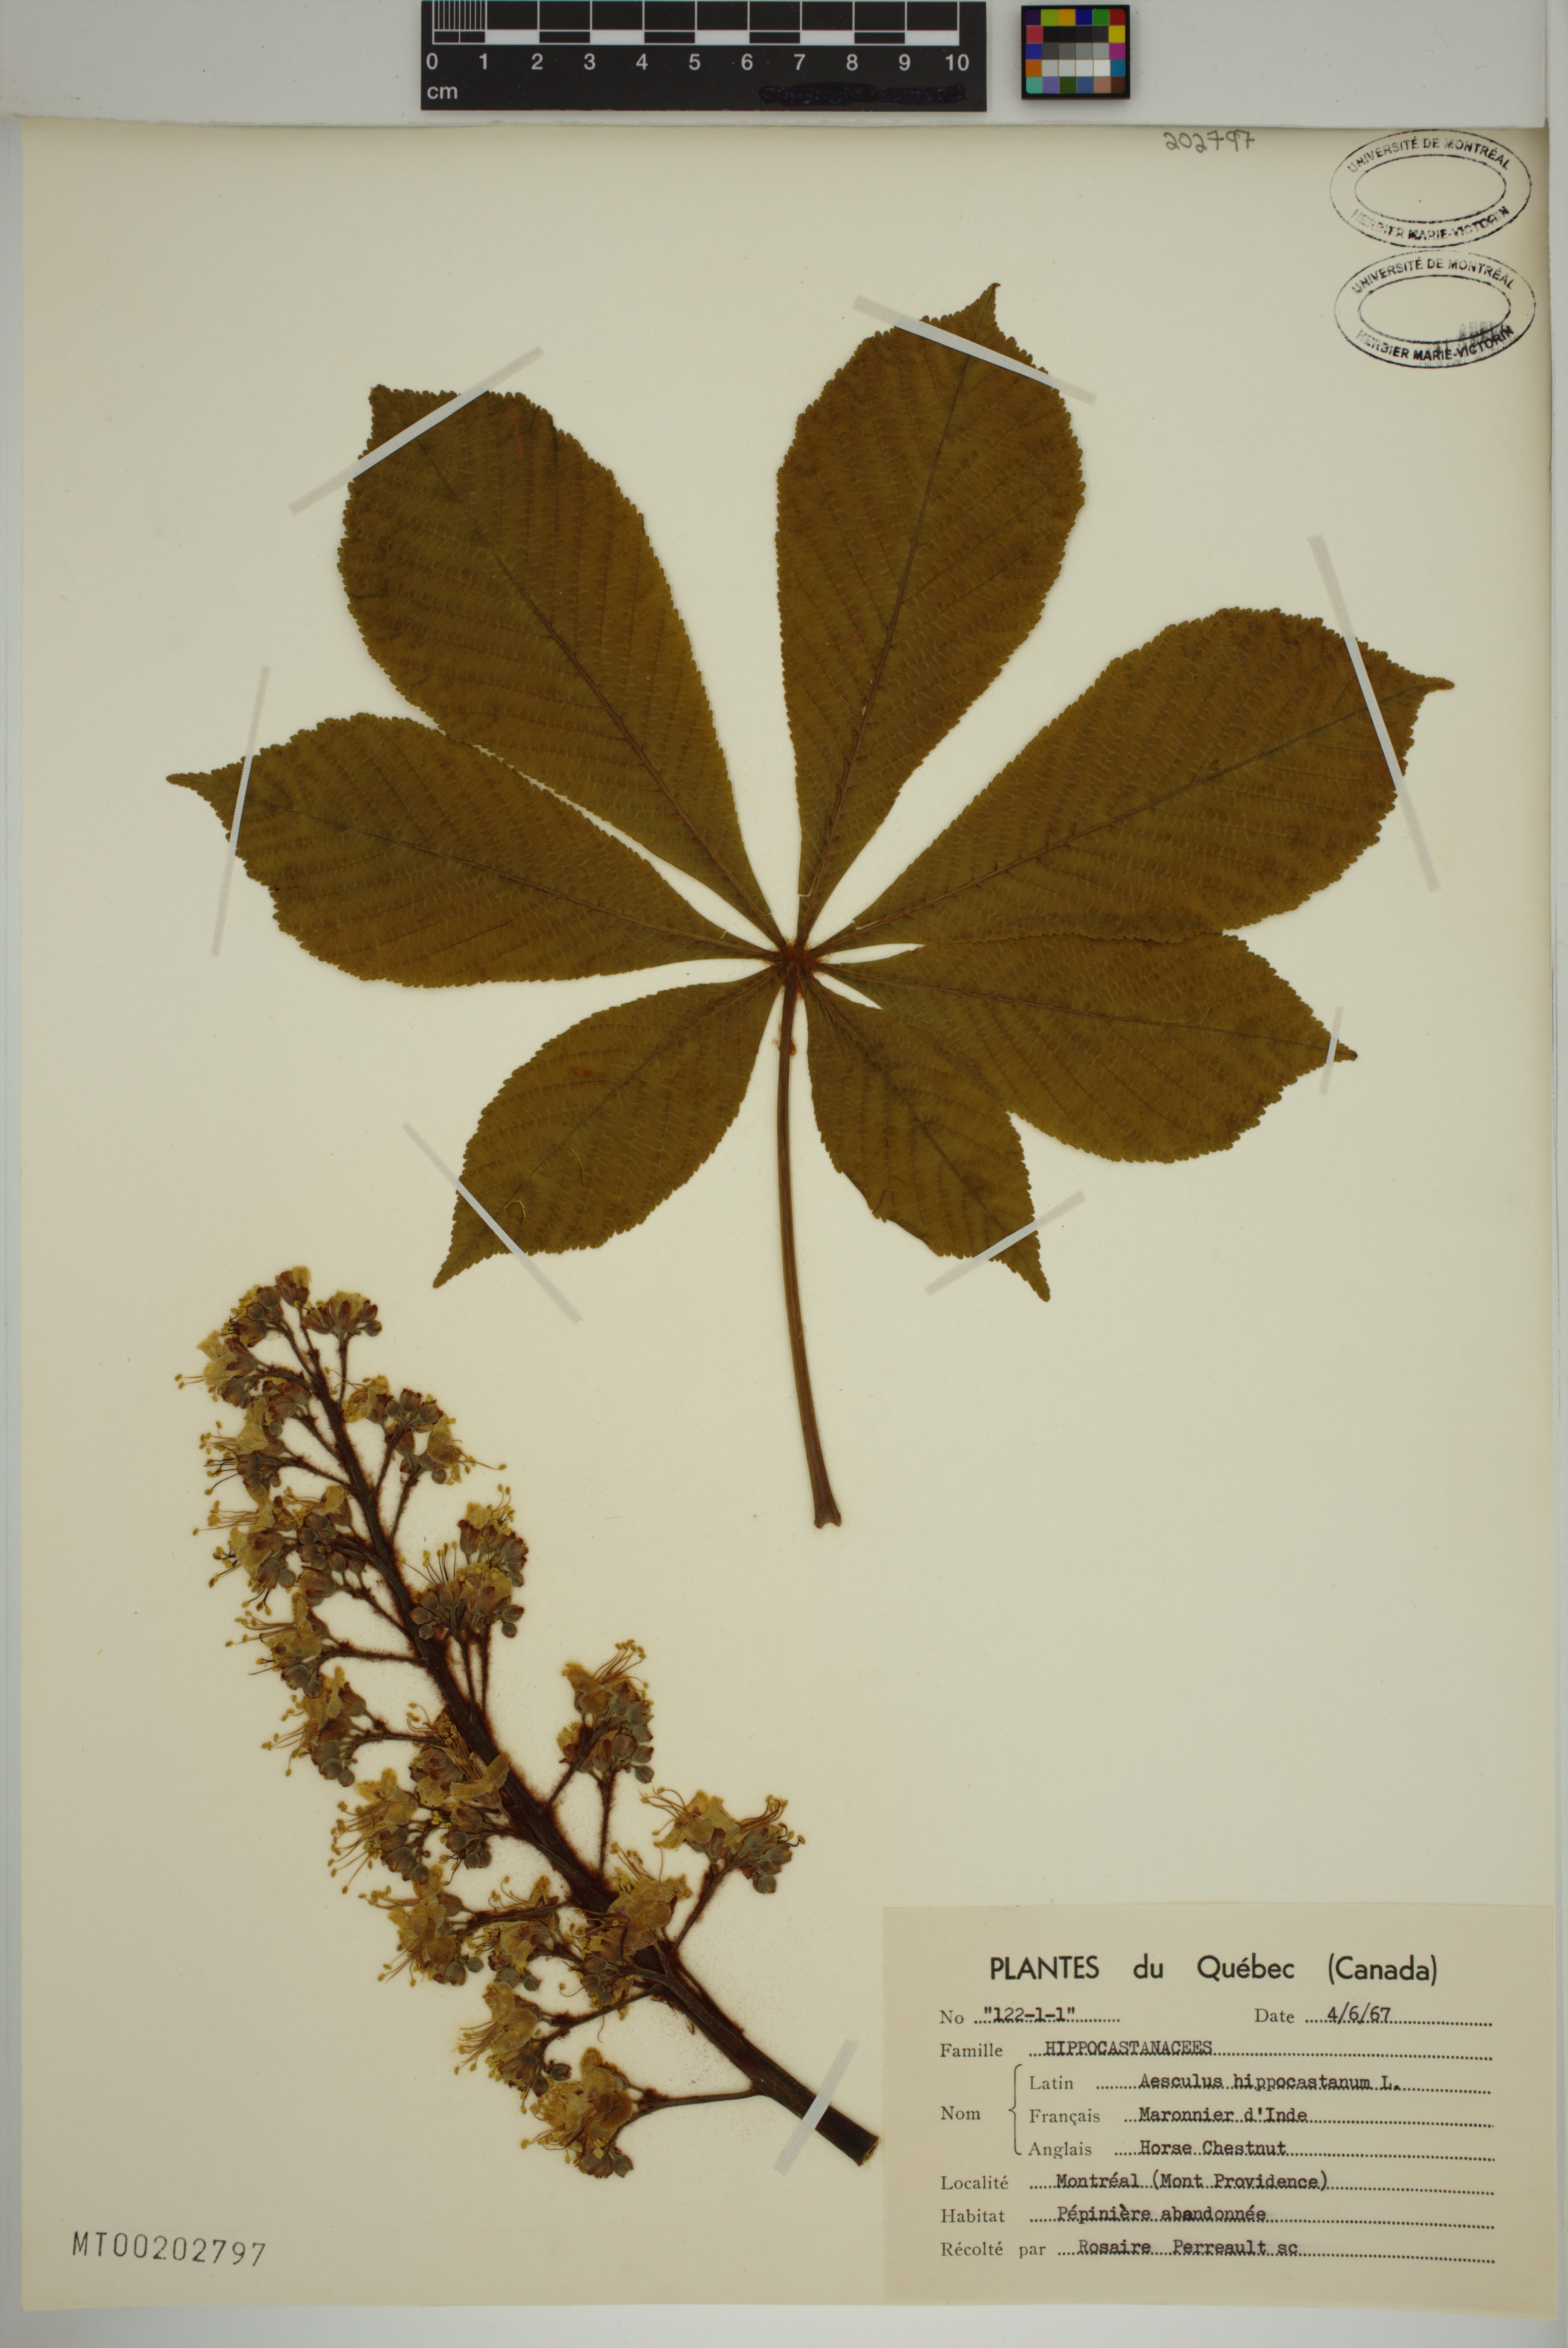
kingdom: Plantae
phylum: Tracheophyta
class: Magnoliopsida
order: Sapindales
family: Sapindaceae
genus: Aesculus
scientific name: Aesculus hippocastanum
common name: Horse-chestnut
